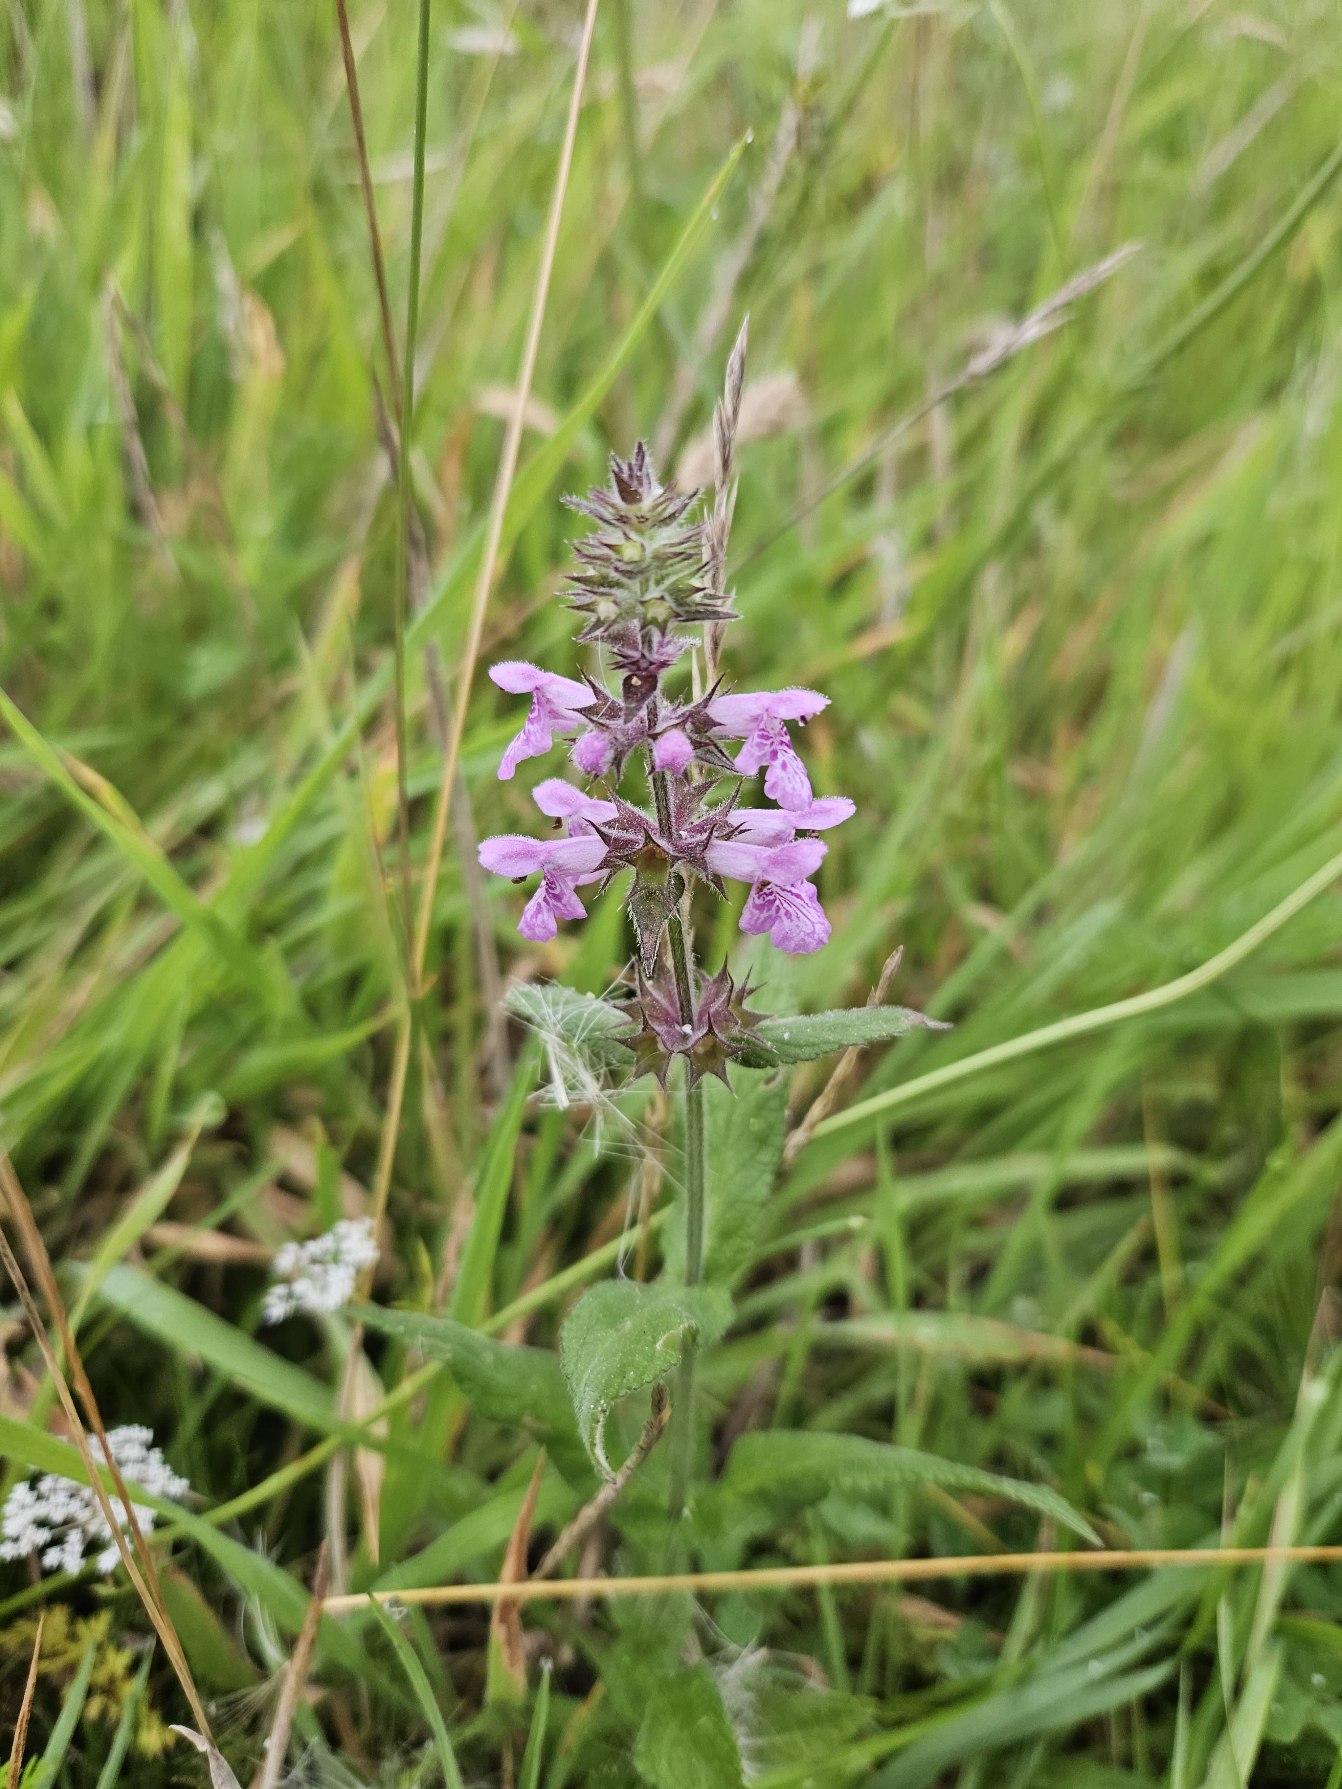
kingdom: Plantae
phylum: Tracheophyta
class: Magnoliopsida
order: Lamiales
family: Lamiaceae
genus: Stachys
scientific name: Stachys palustris
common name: Kær-galtetand
